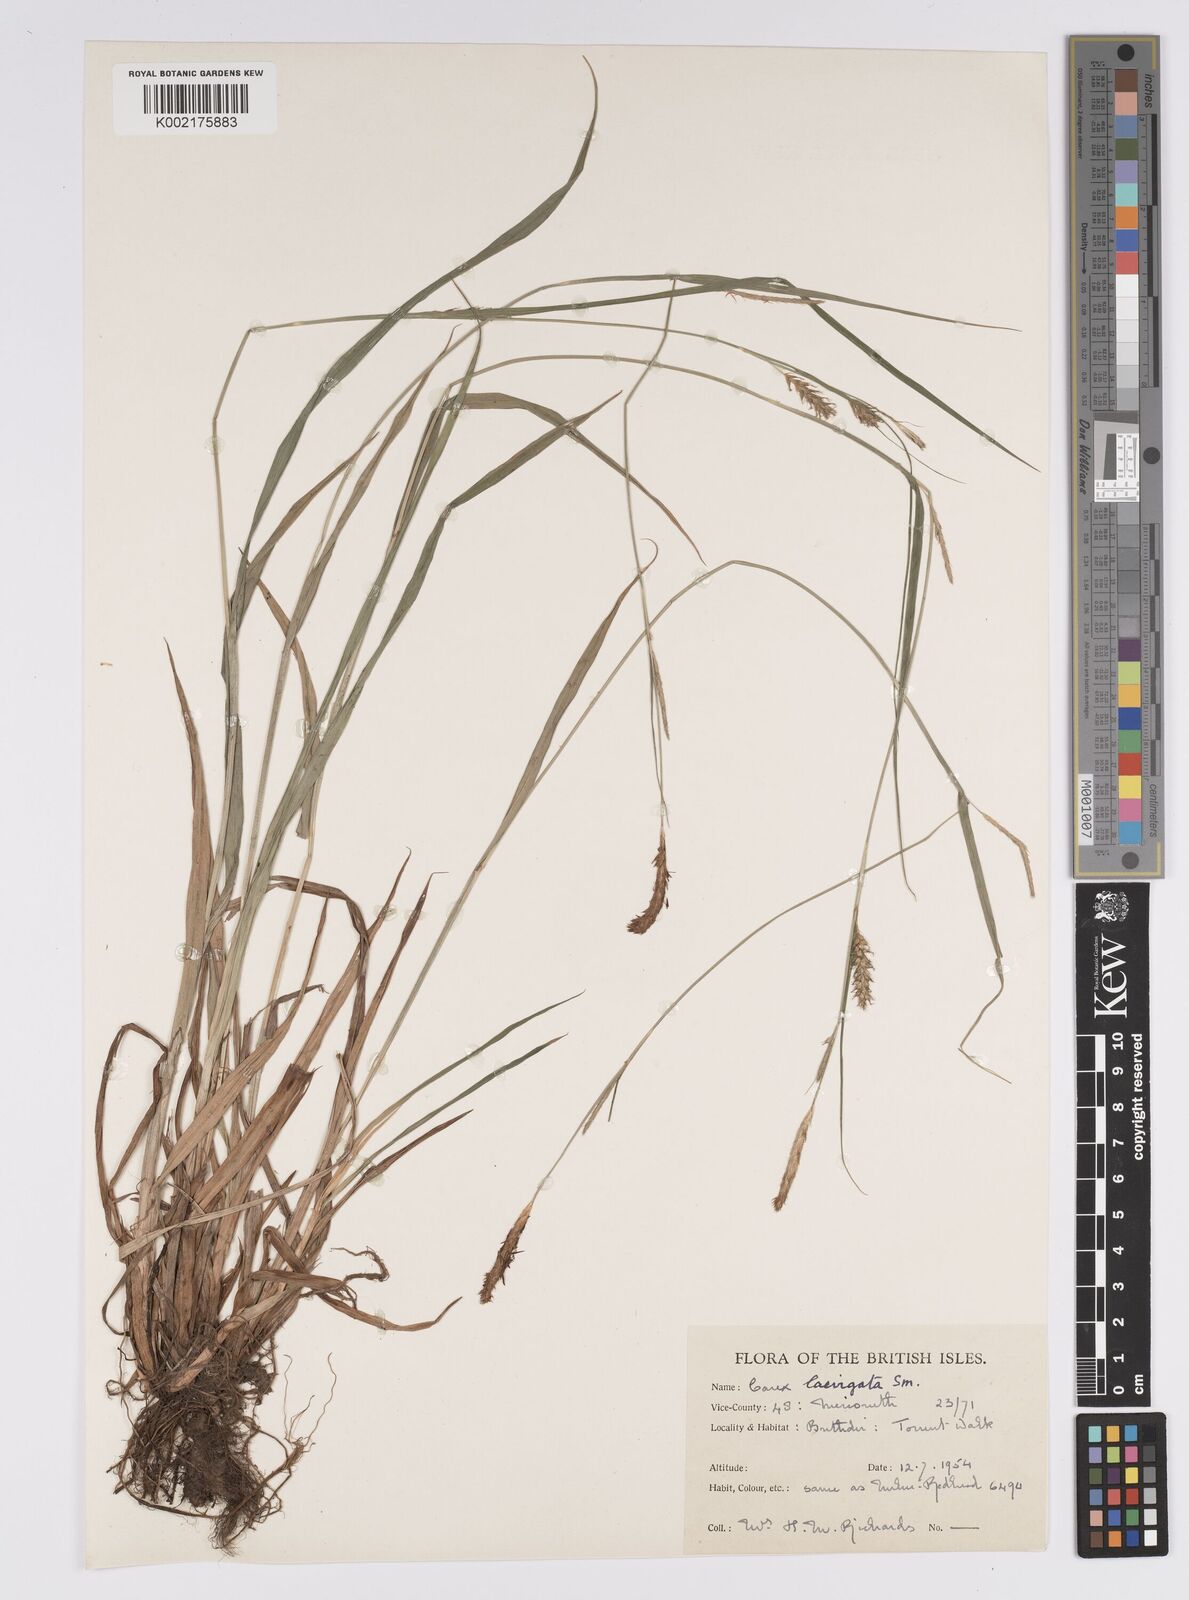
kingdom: Plantae
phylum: Tracheophyta
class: Liliopsida
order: Poales
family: Cyperaceae
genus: Carex
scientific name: Carex laevigata
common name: Smooth-stalked sedge
